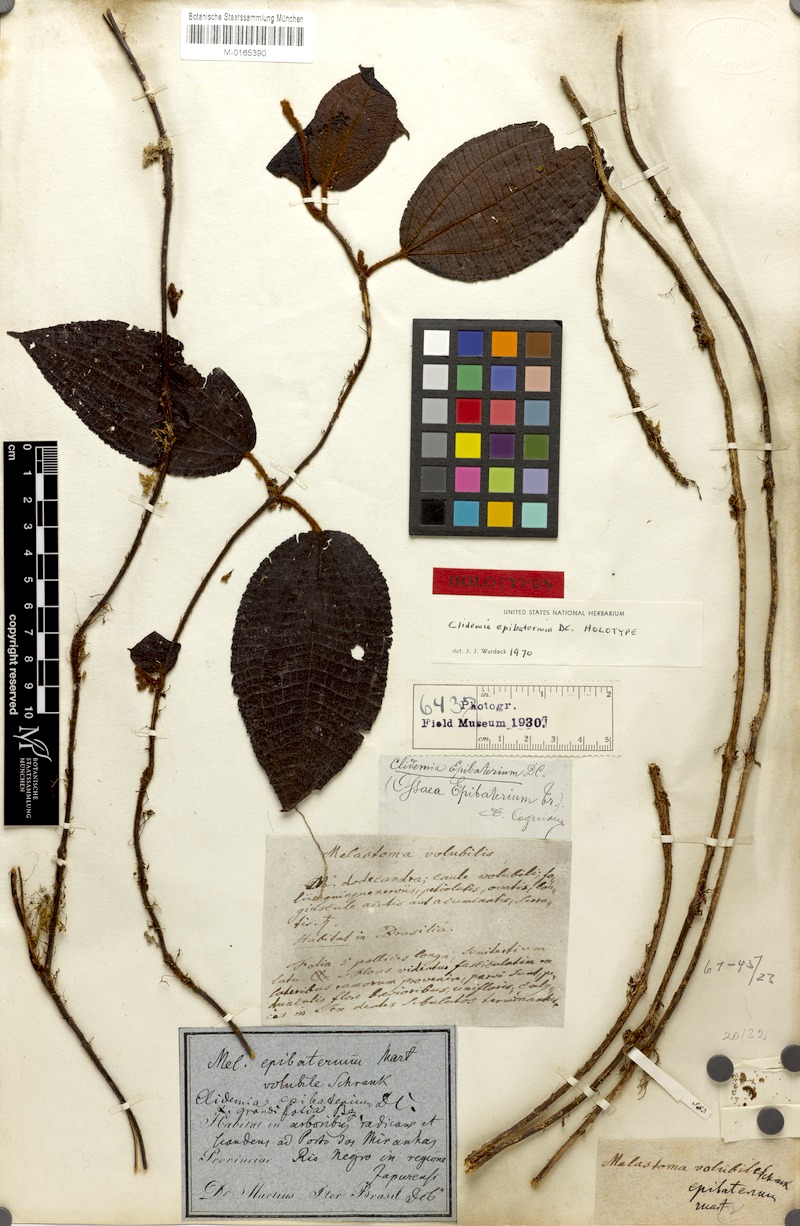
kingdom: Plantae
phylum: Tracheophyta
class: Magnoliopsida
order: Myrtales
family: Melastomataceae
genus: Miconia
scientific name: Miconia epibaterium
